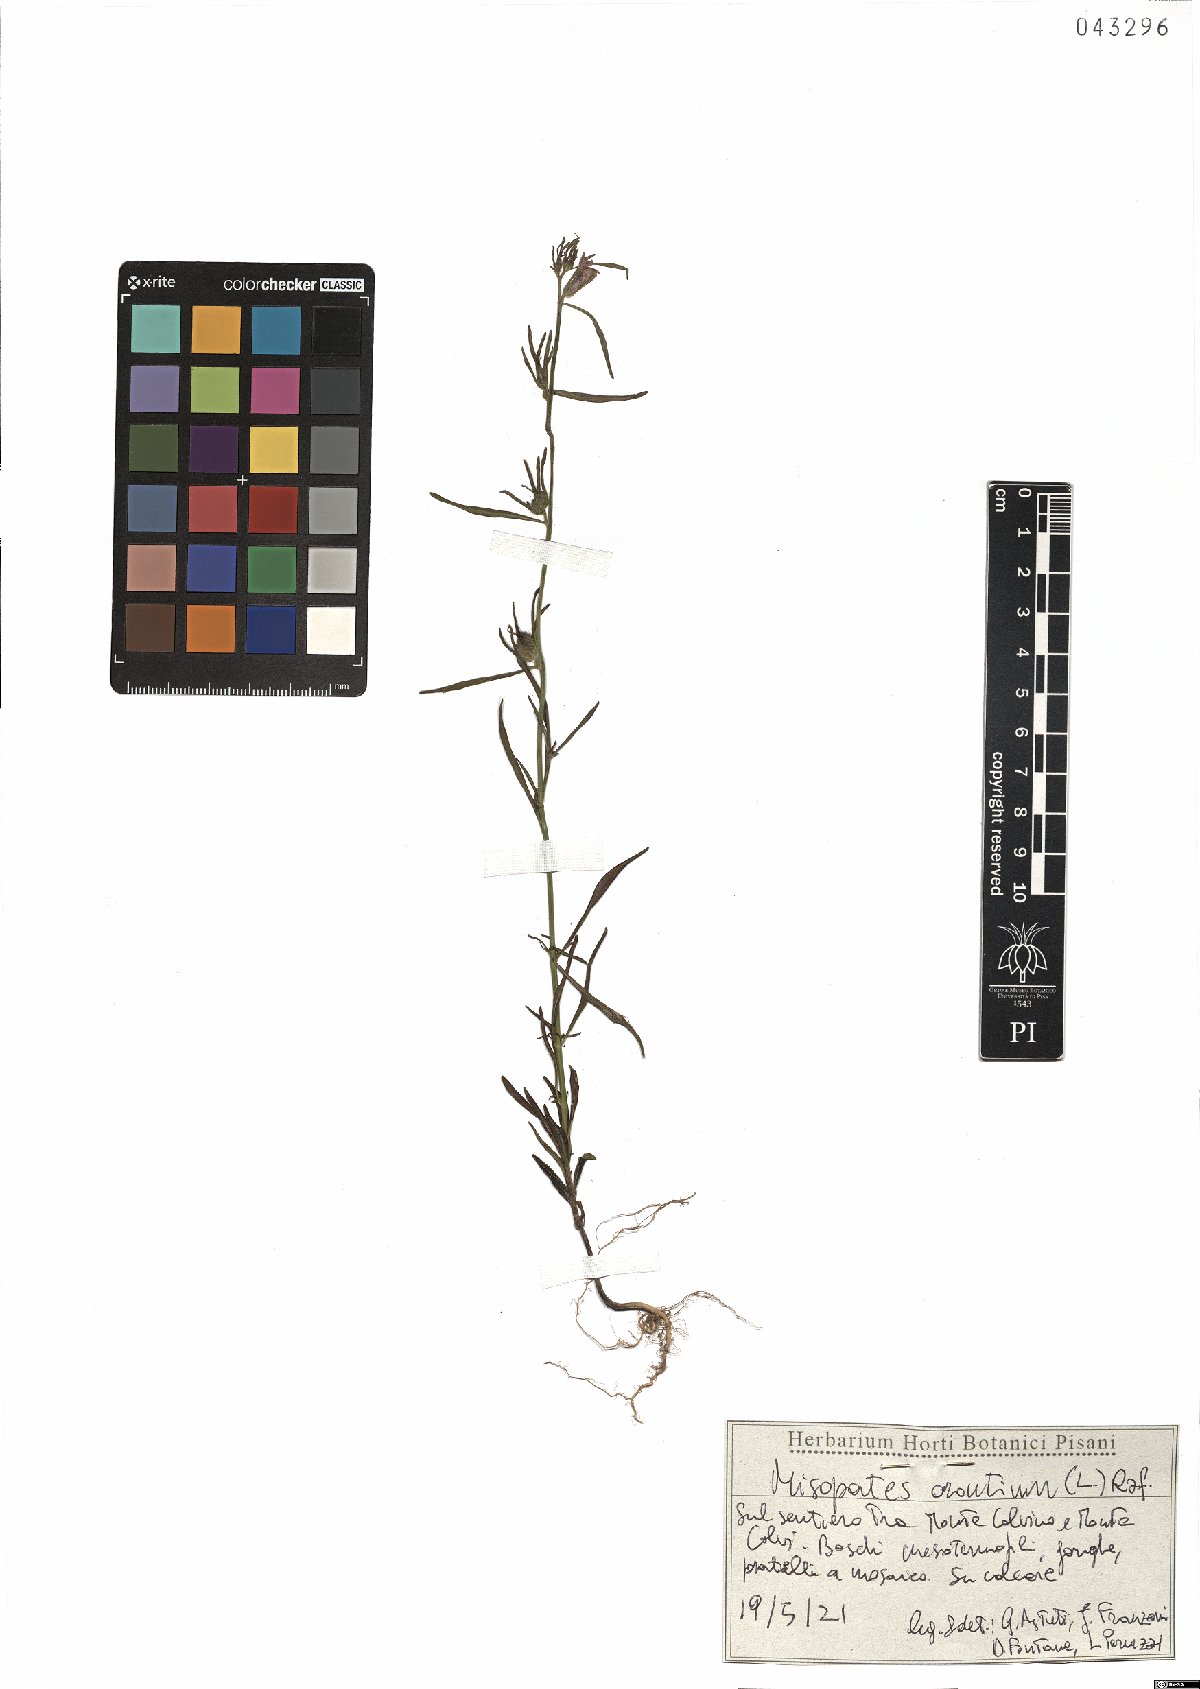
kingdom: Plantae
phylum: Tracheophyta
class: Magnoliopsida
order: Lamiales
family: Plantaginaceae
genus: Misopates
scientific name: Misopates orontium
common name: Weasel's-snout
